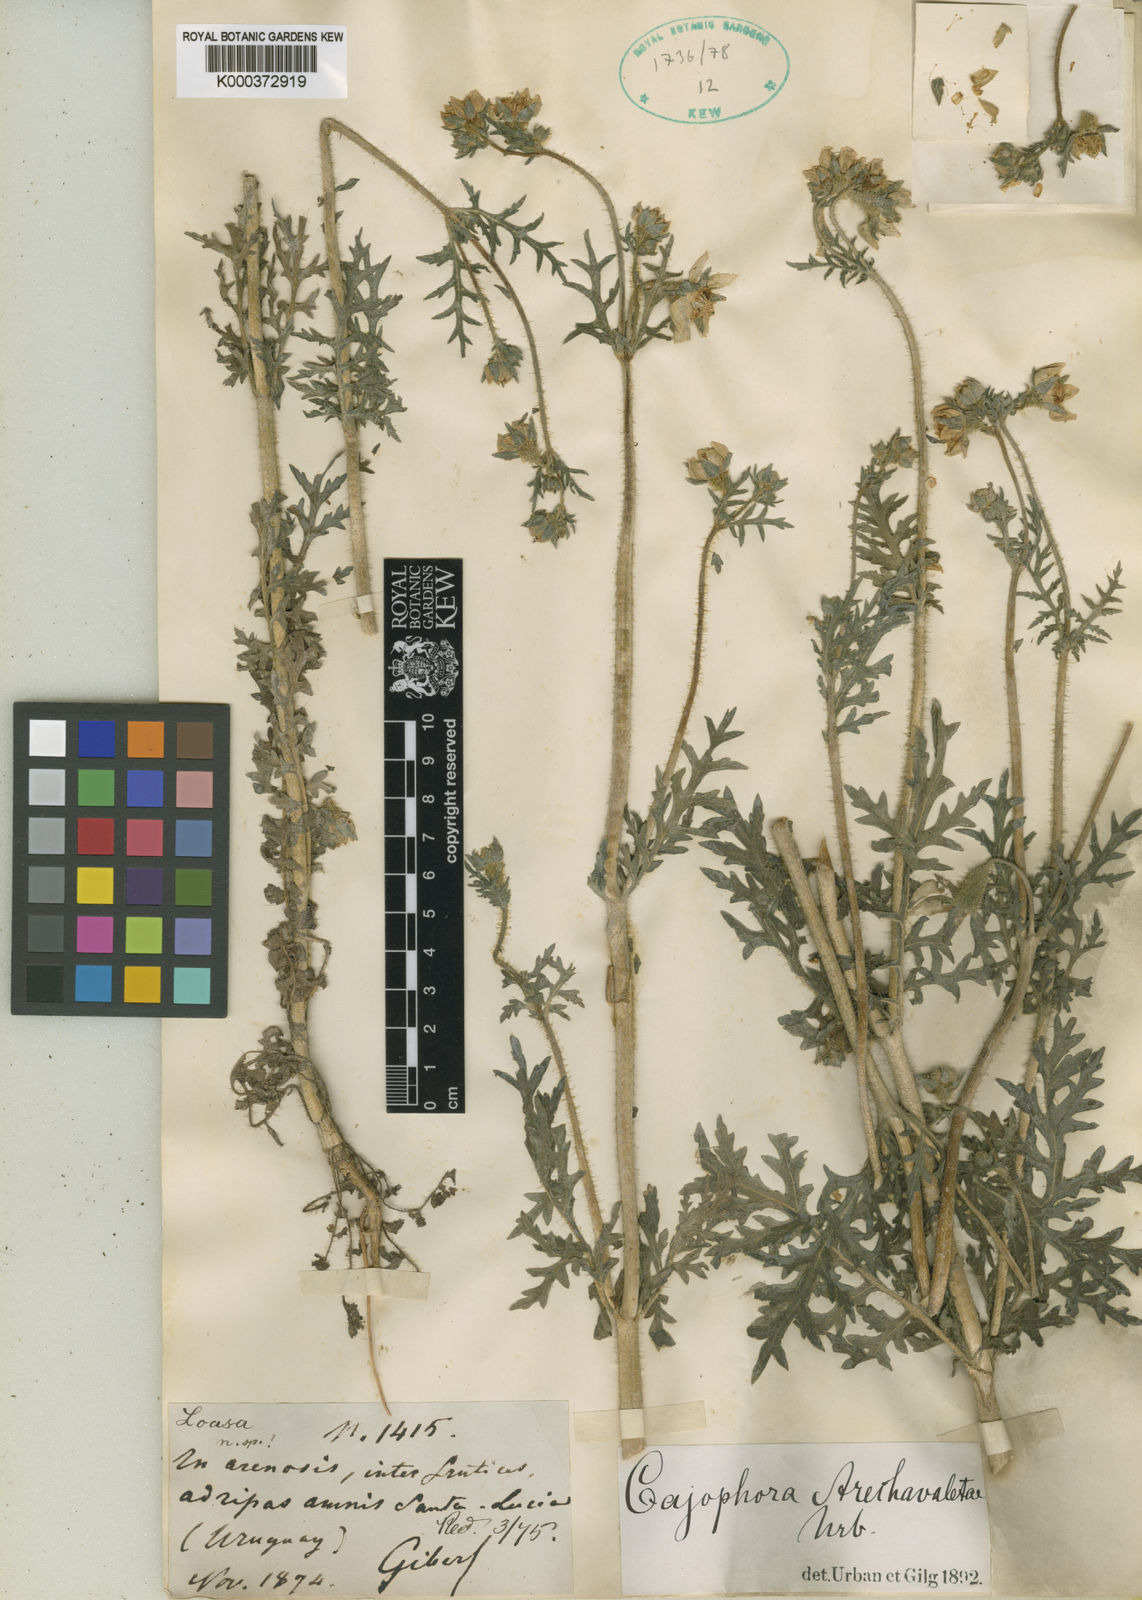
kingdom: Plantae
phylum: Tracheophyta
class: Magnoliopsida
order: Cornales
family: Loasaceae
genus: Caiophora
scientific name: Caiophora arechavaletae
